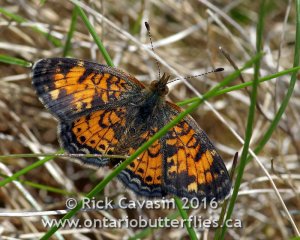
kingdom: Animalia
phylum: Arthropoda
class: Insecta
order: Lepidoptera
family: Nymphalidae
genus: Phyciodes
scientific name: Phyciodes tharos
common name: Pearl Crescent
